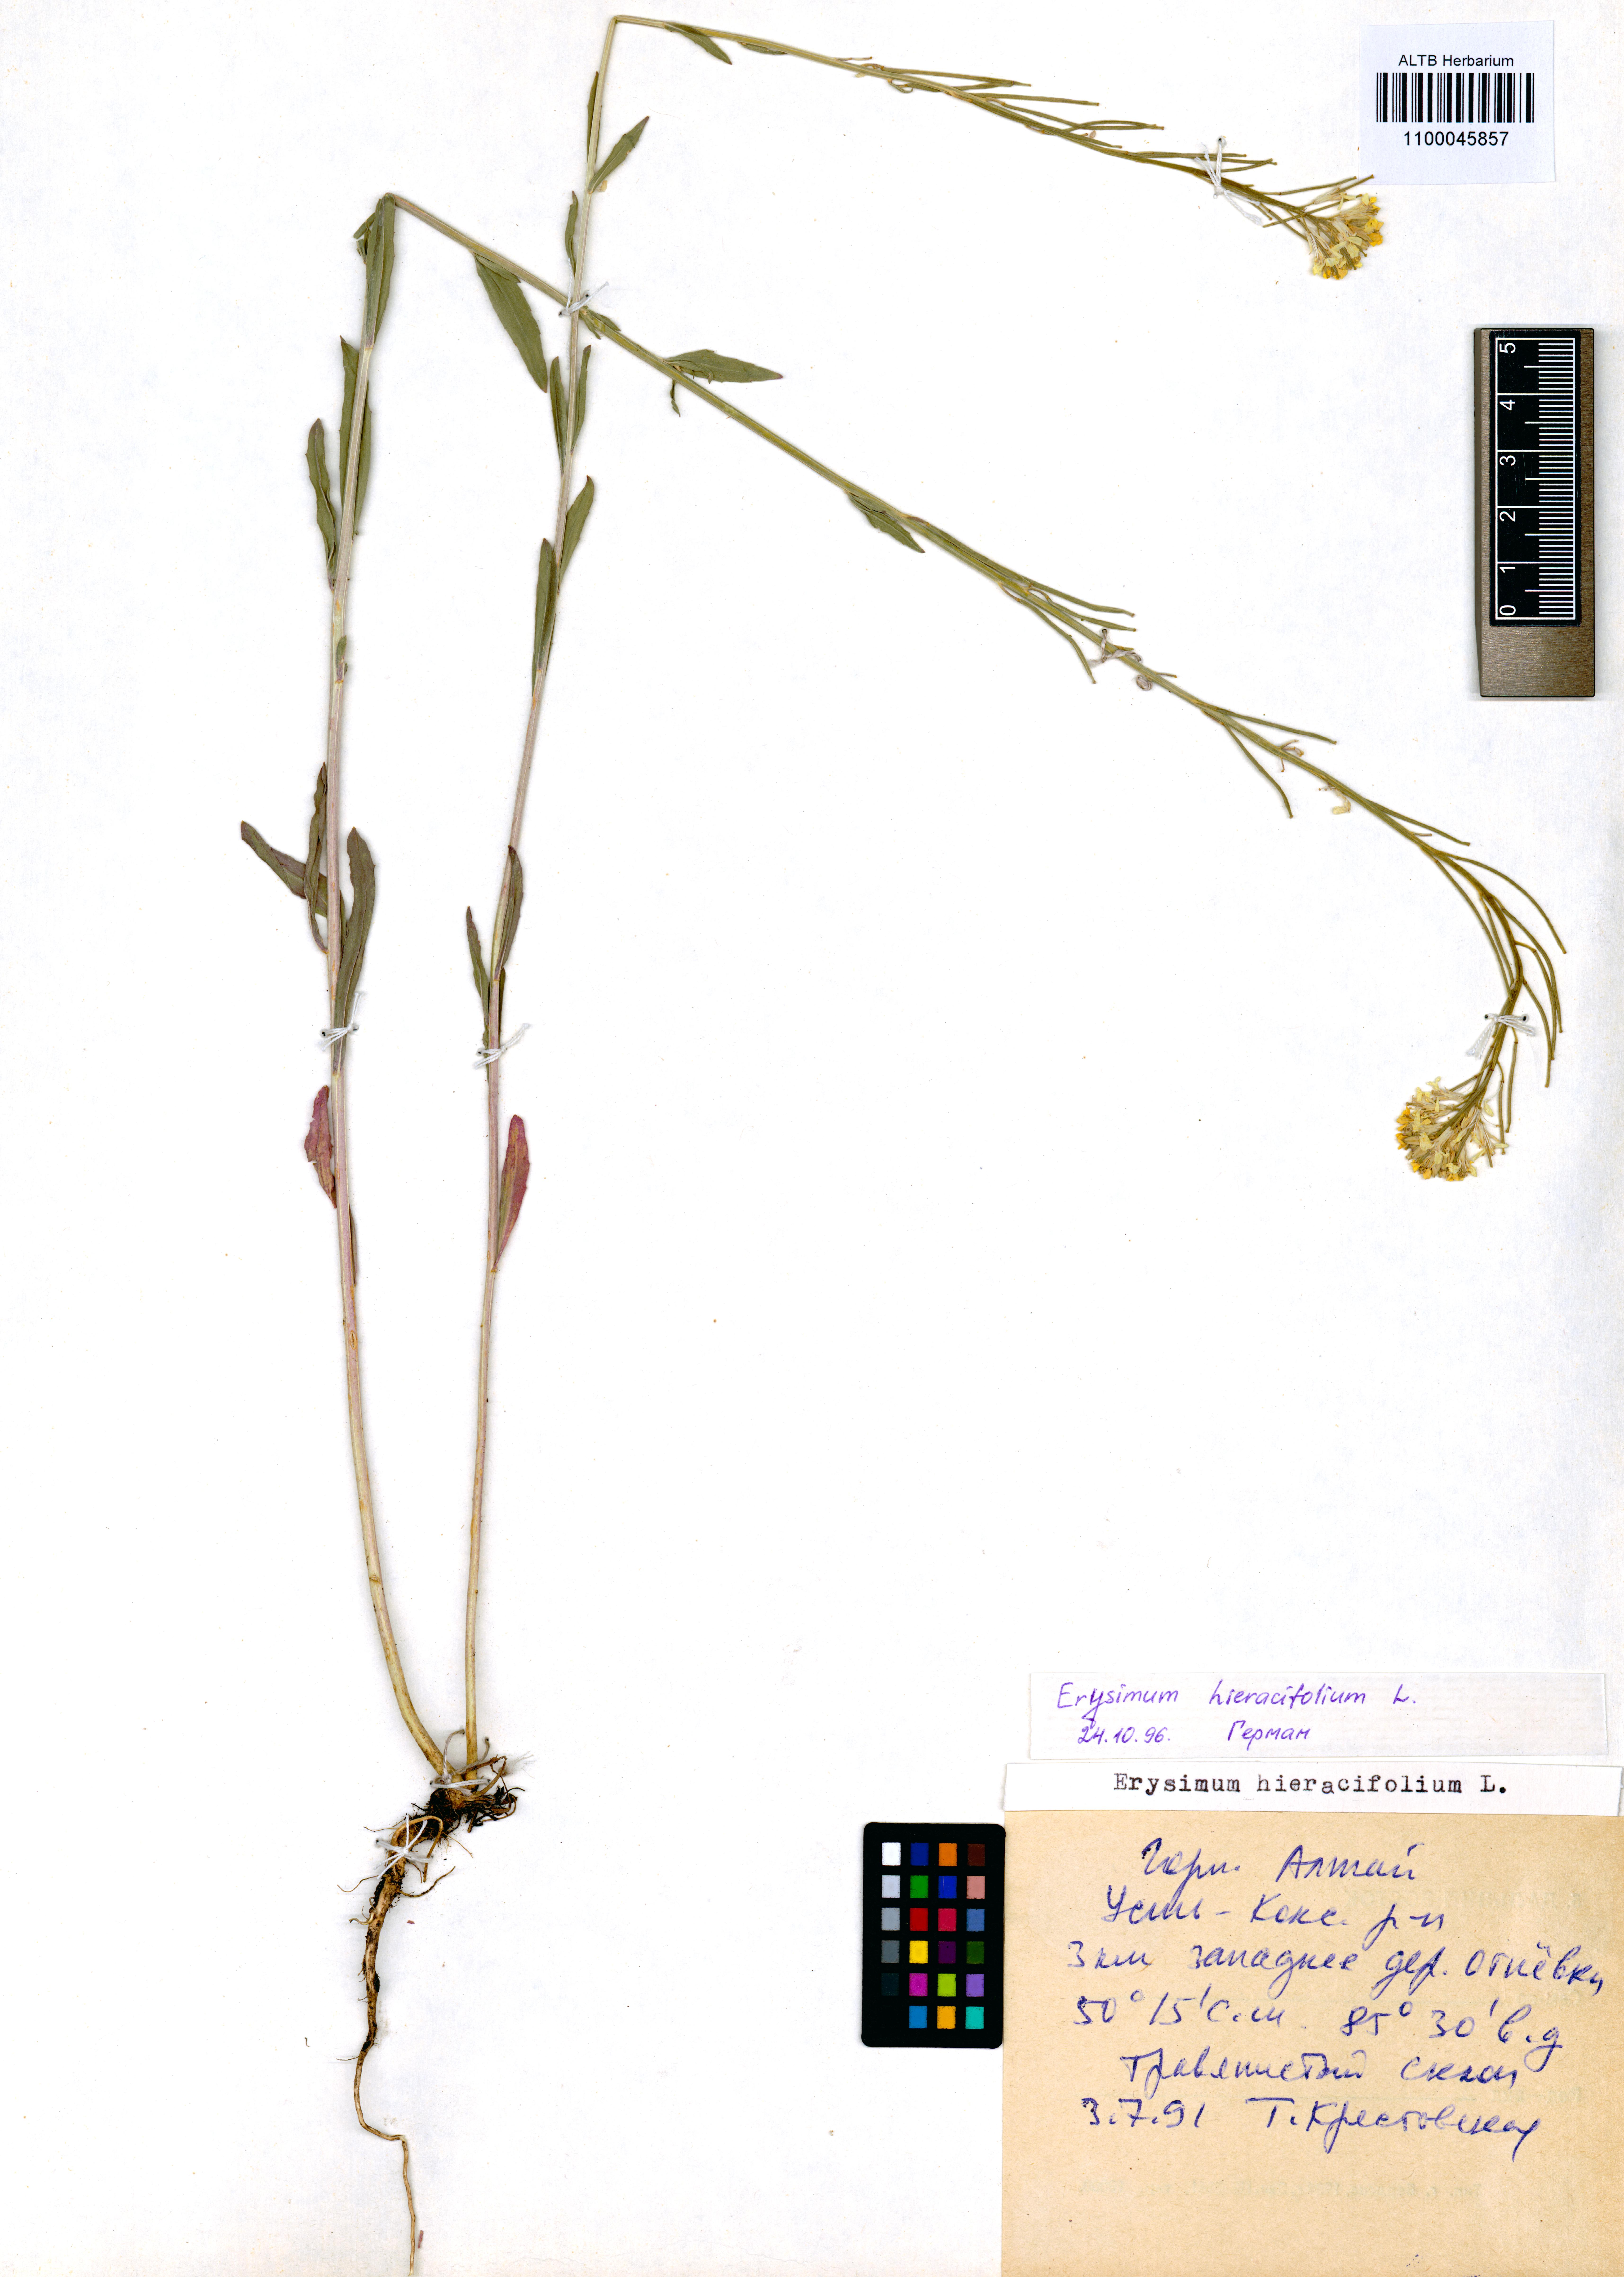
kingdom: Plantae
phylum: Tracheophyta
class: Magnoliopsida
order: Brassicales
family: Brassicaceae
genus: Erysimum
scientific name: Erysimum hieraciifolium
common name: European wallflower
